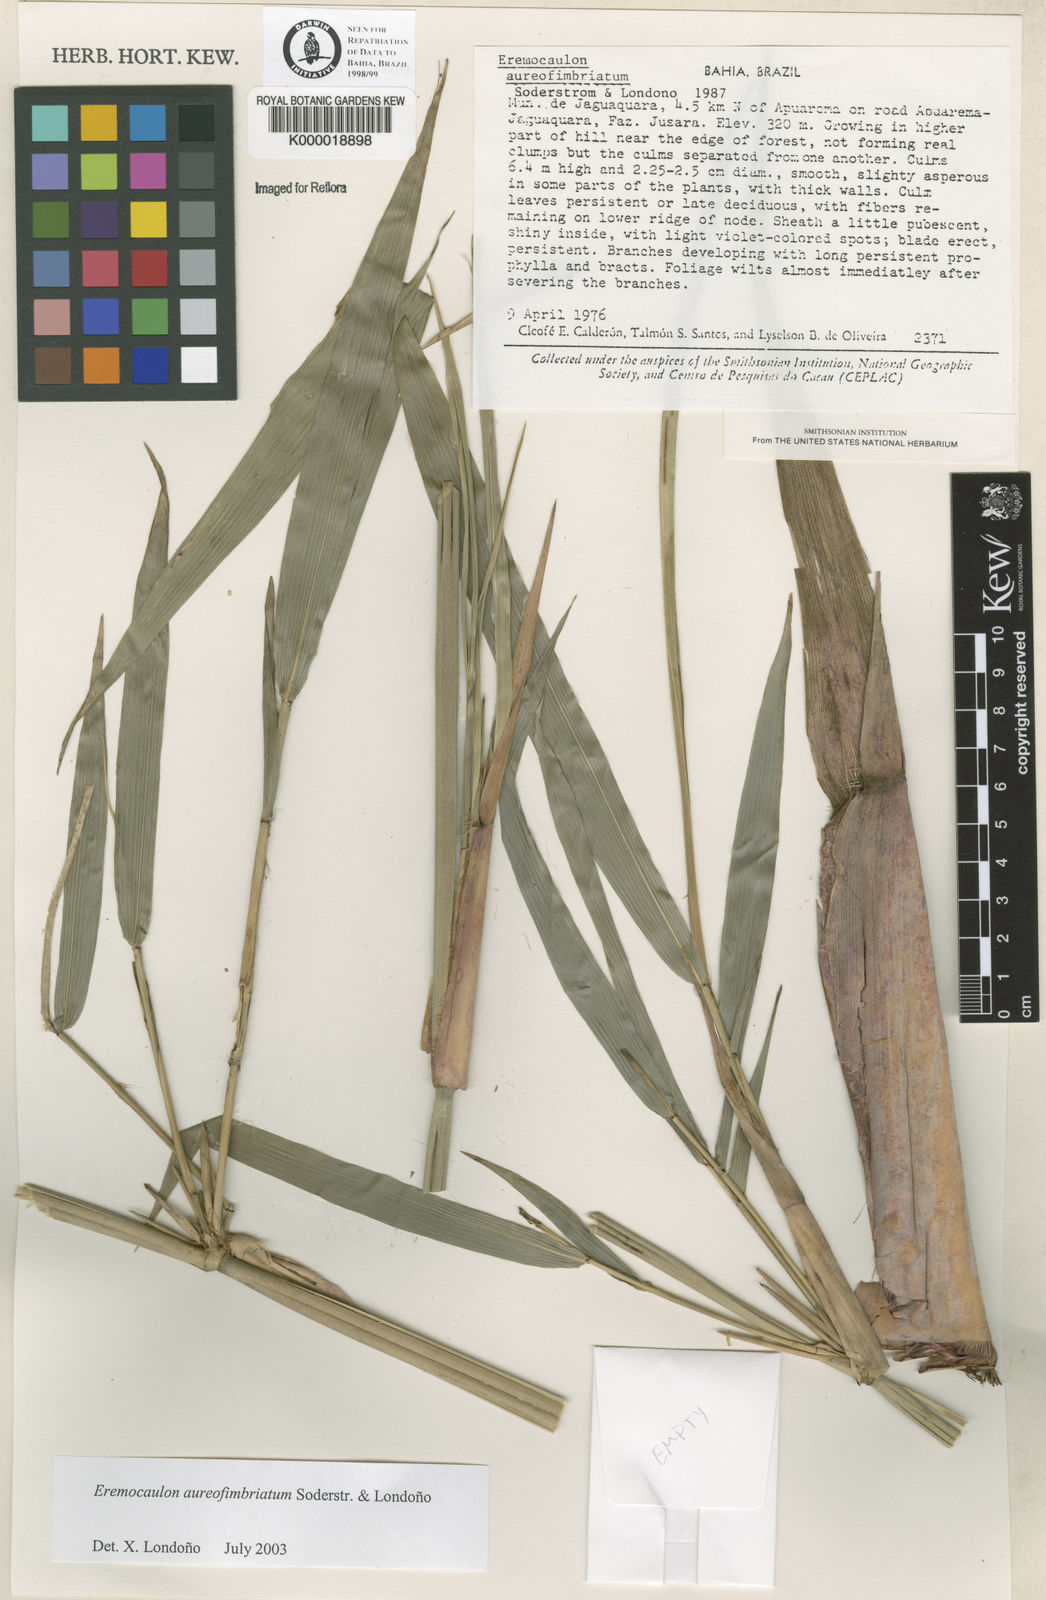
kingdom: Plantae
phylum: Tracheophyta
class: Liliopsida
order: Poales
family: Poaceae
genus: Eremocaulon
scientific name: Eremocaulon
